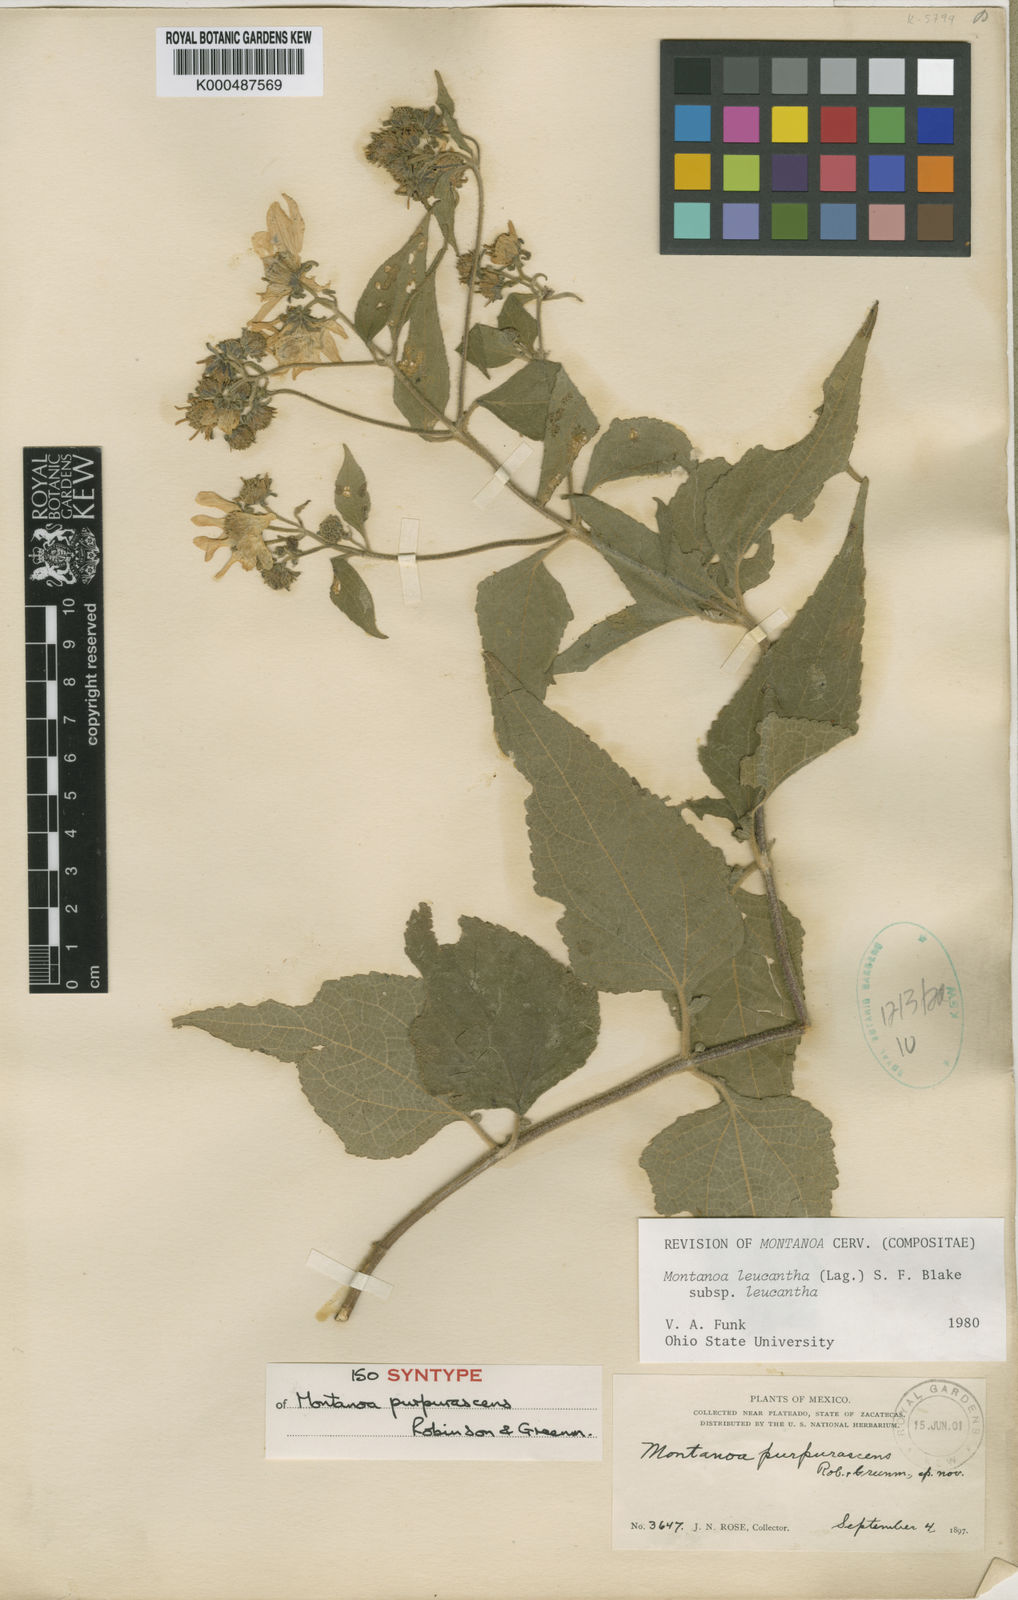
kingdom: Plantae
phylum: Tracheophyta
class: Magnoliopsida
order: Asterales
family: Asteraceae
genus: Montanoa
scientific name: Montanoa leucantha
